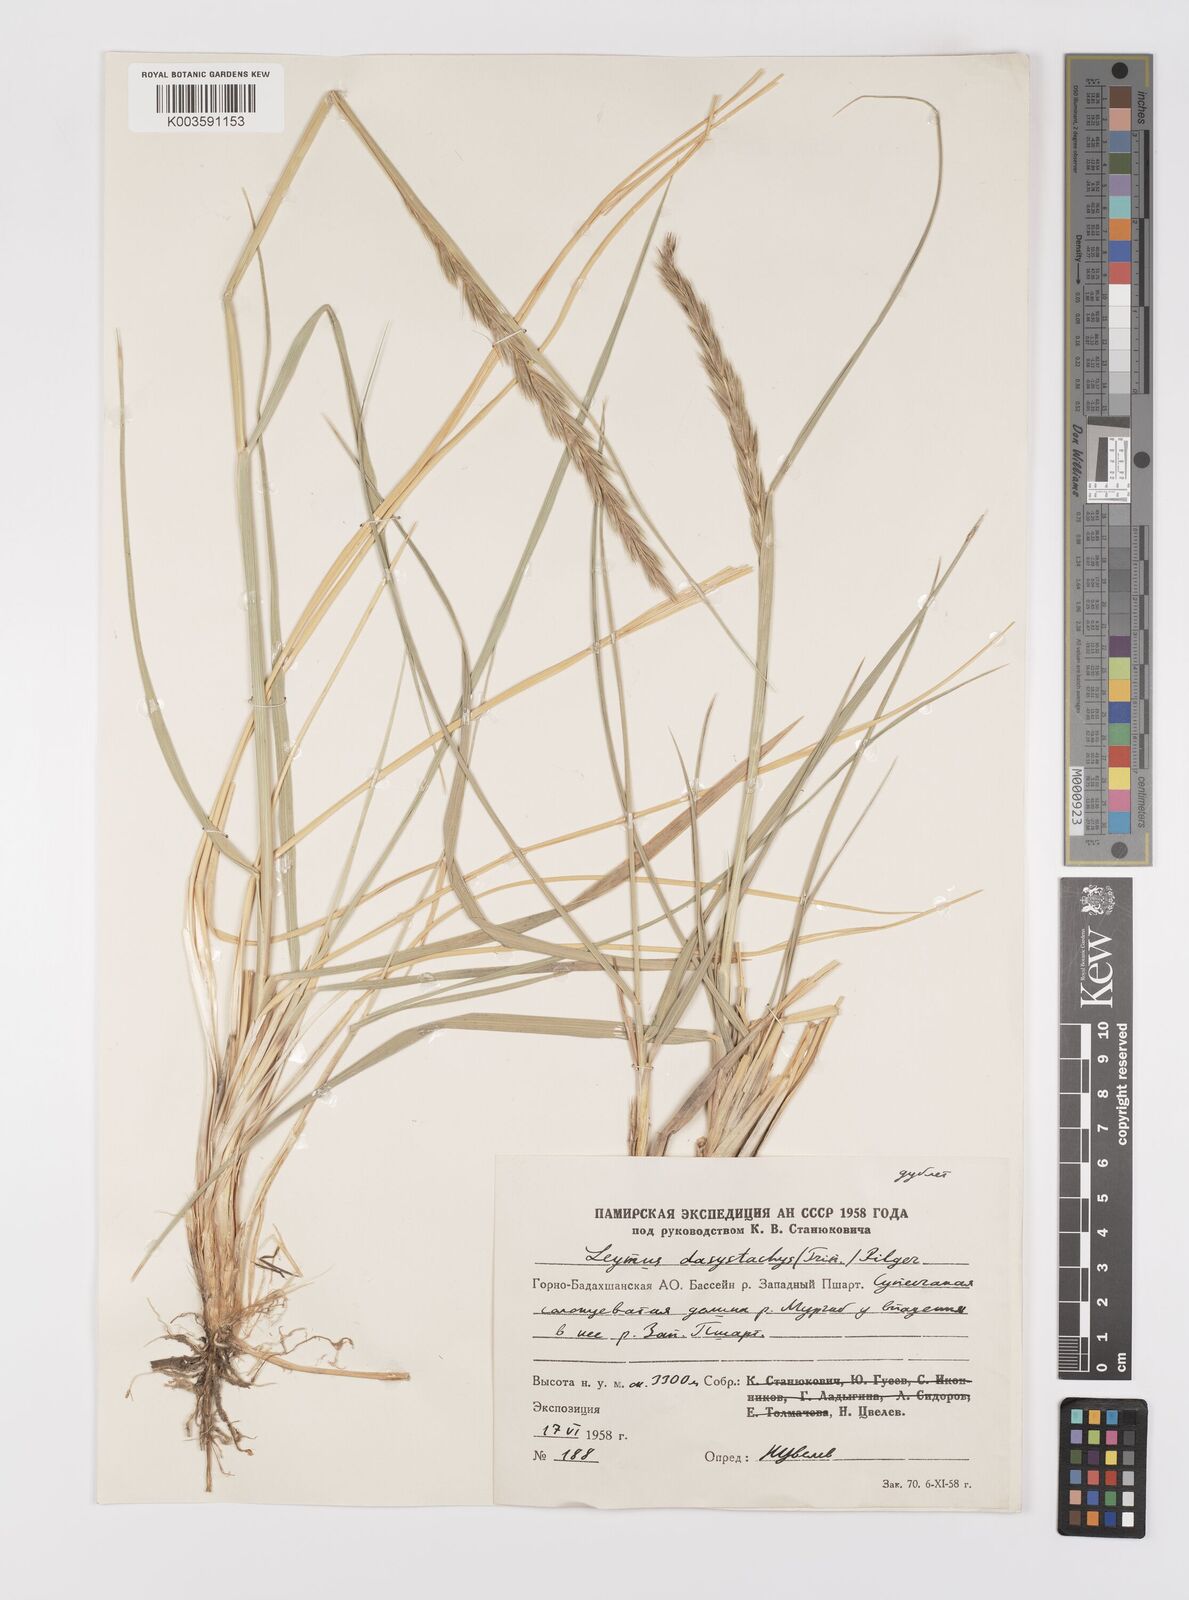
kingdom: Plantae
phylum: Tracheophyta
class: Liliopsida
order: Poales
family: Poaceae
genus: Leymus
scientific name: Leymus secalinus
